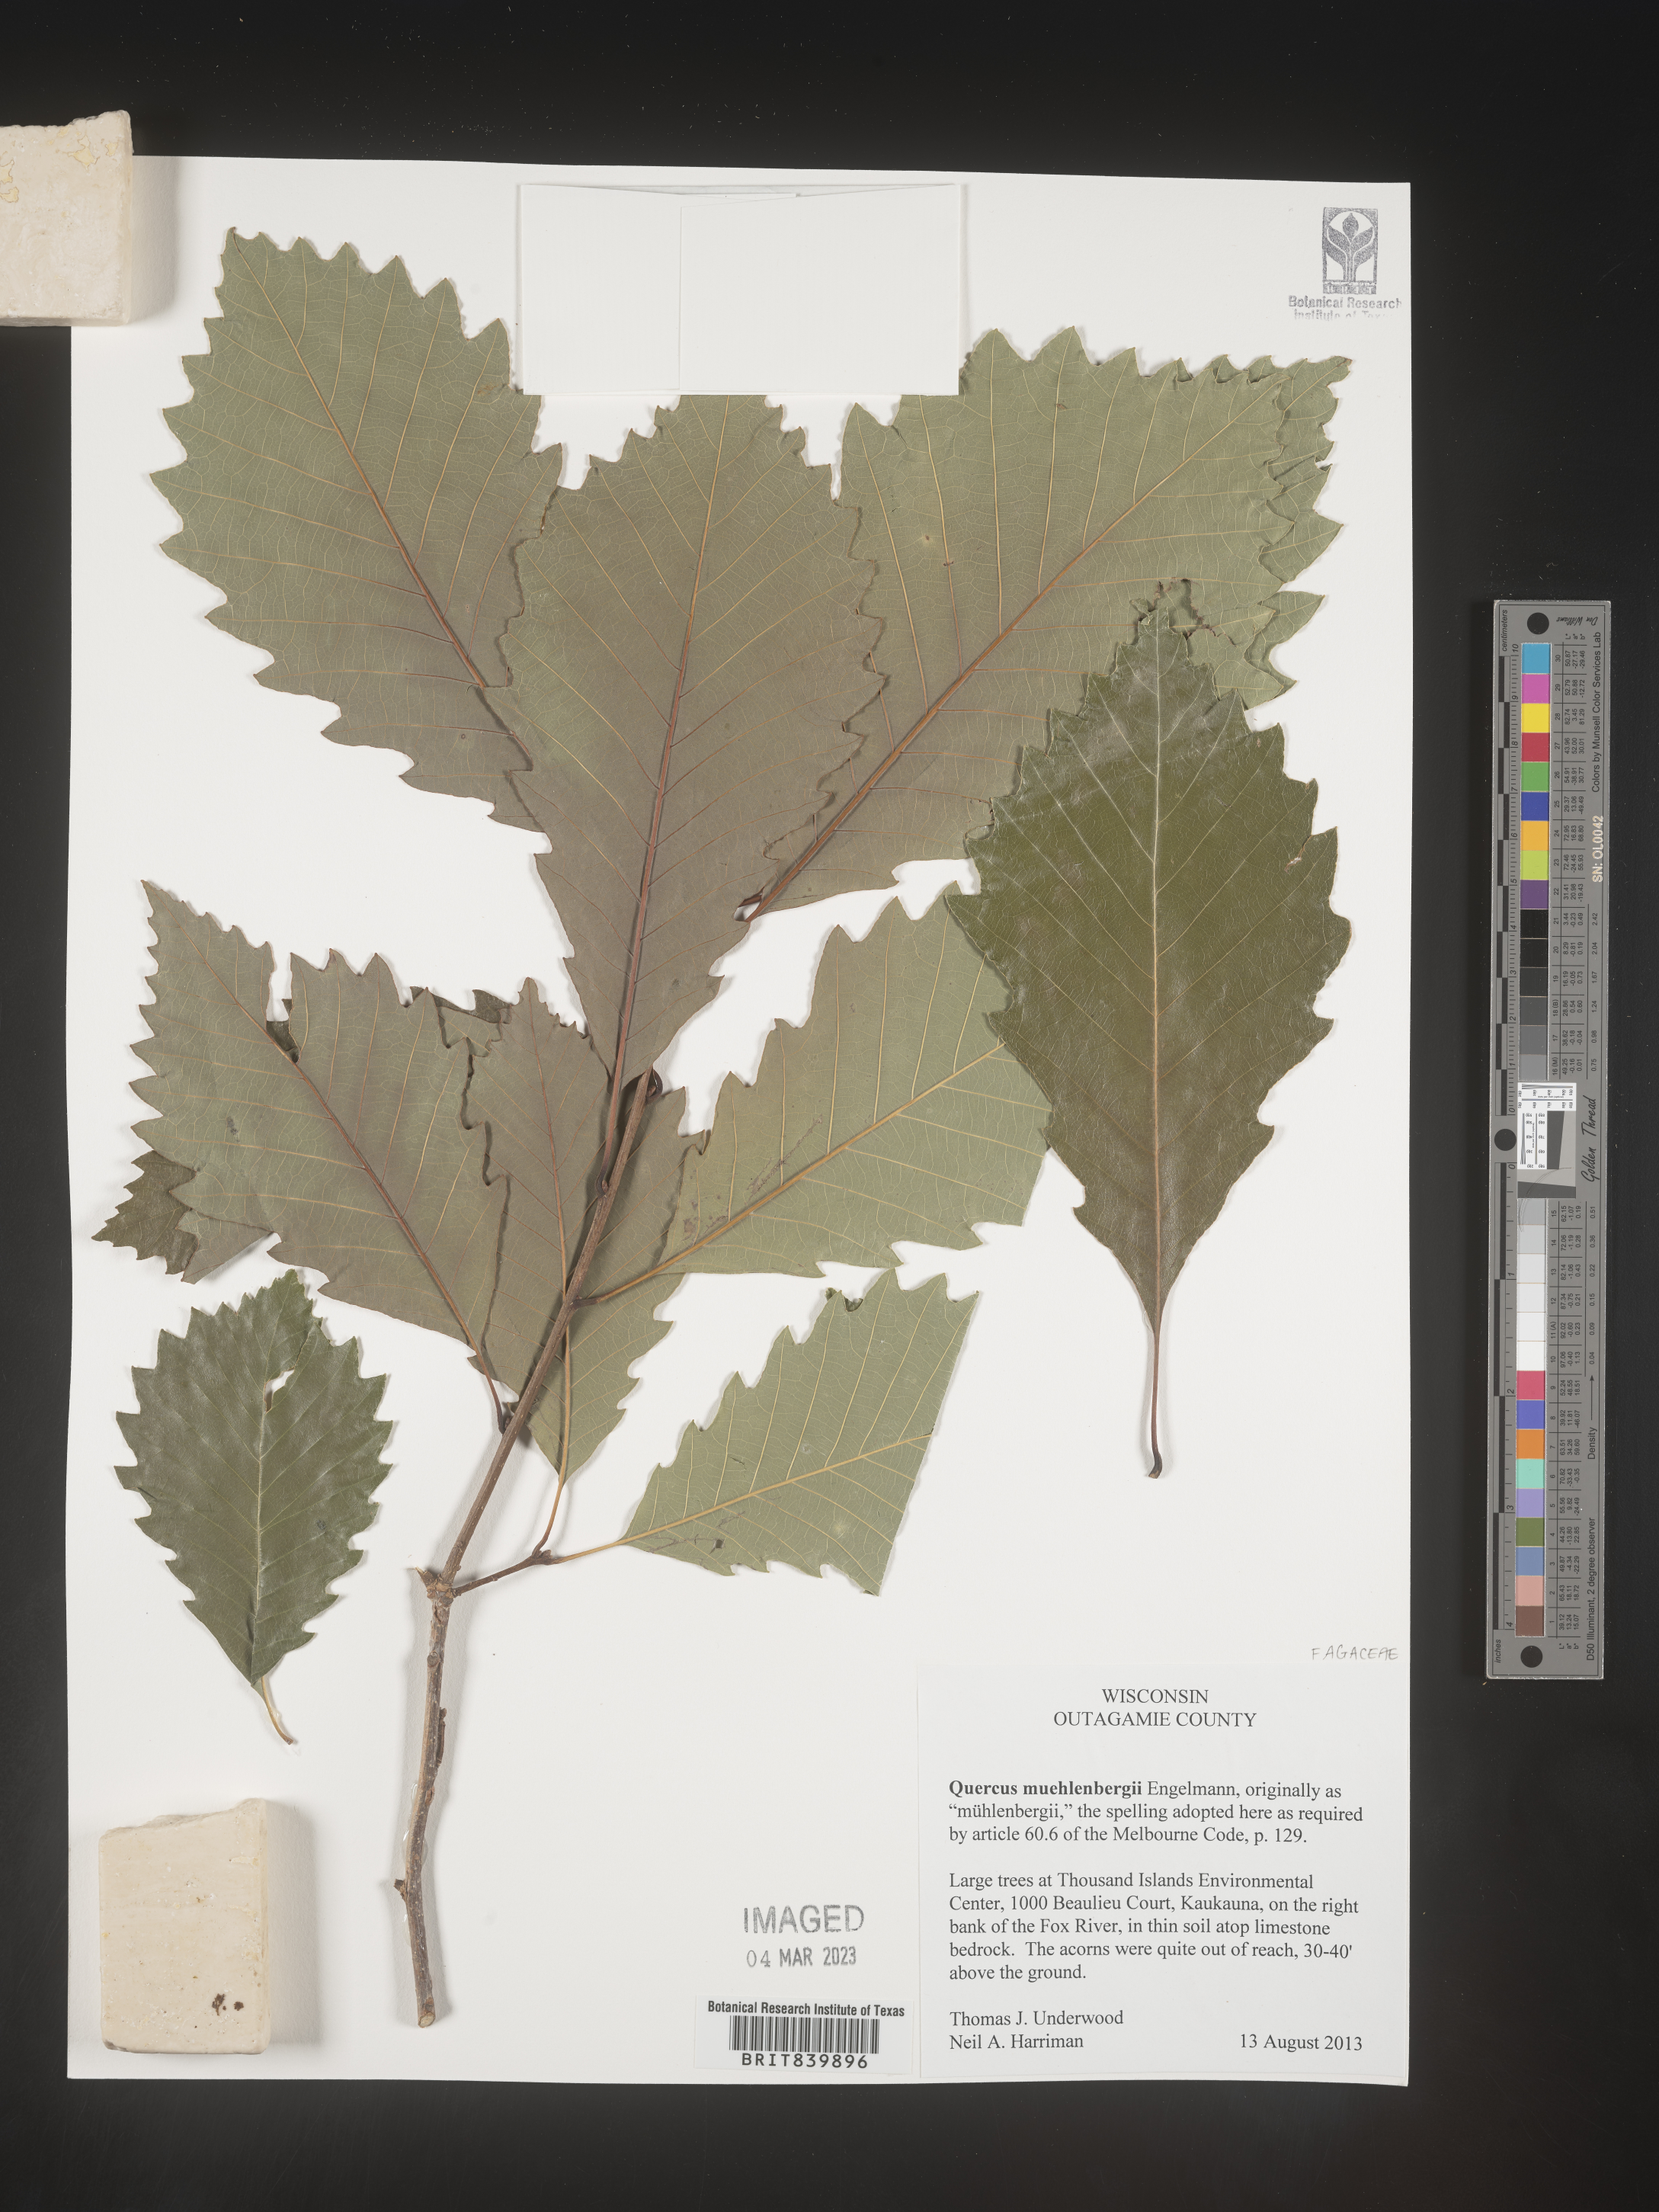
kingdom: Plantae
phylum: Tracheophyta
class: Magnoliopsida
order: Fagales
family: Fagaceae
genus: Quercus
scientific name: Quercus muehlenbergii
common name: Chinkapin oak
